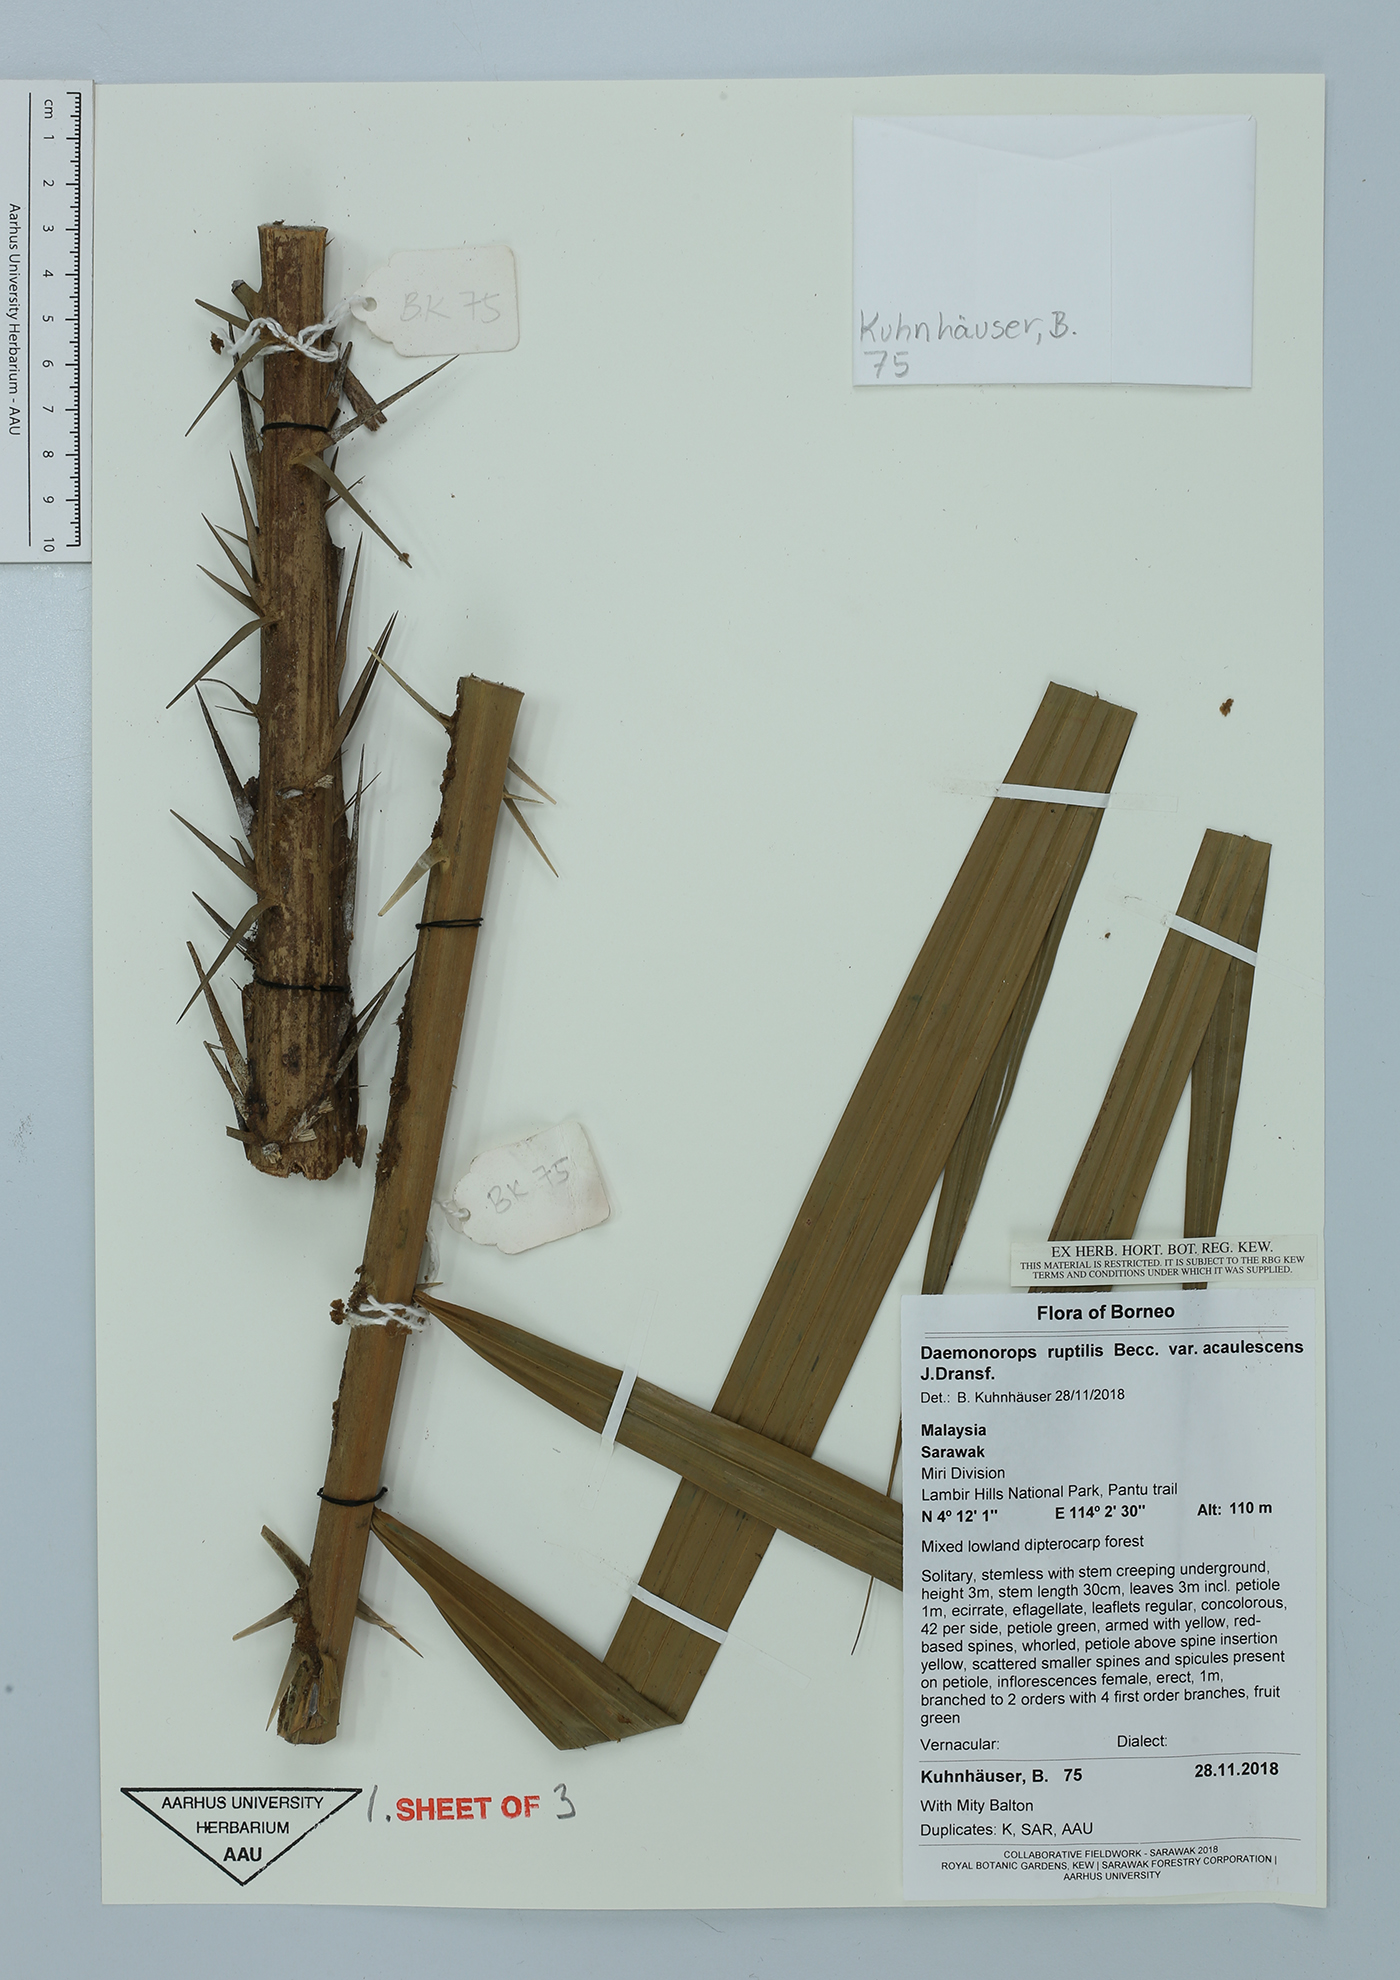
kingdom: Plantae
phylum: Tracheophyta
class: Liliopsida
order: Arecales
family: Arecaceae
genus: Calamus
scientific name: Calamus ruptiloides
